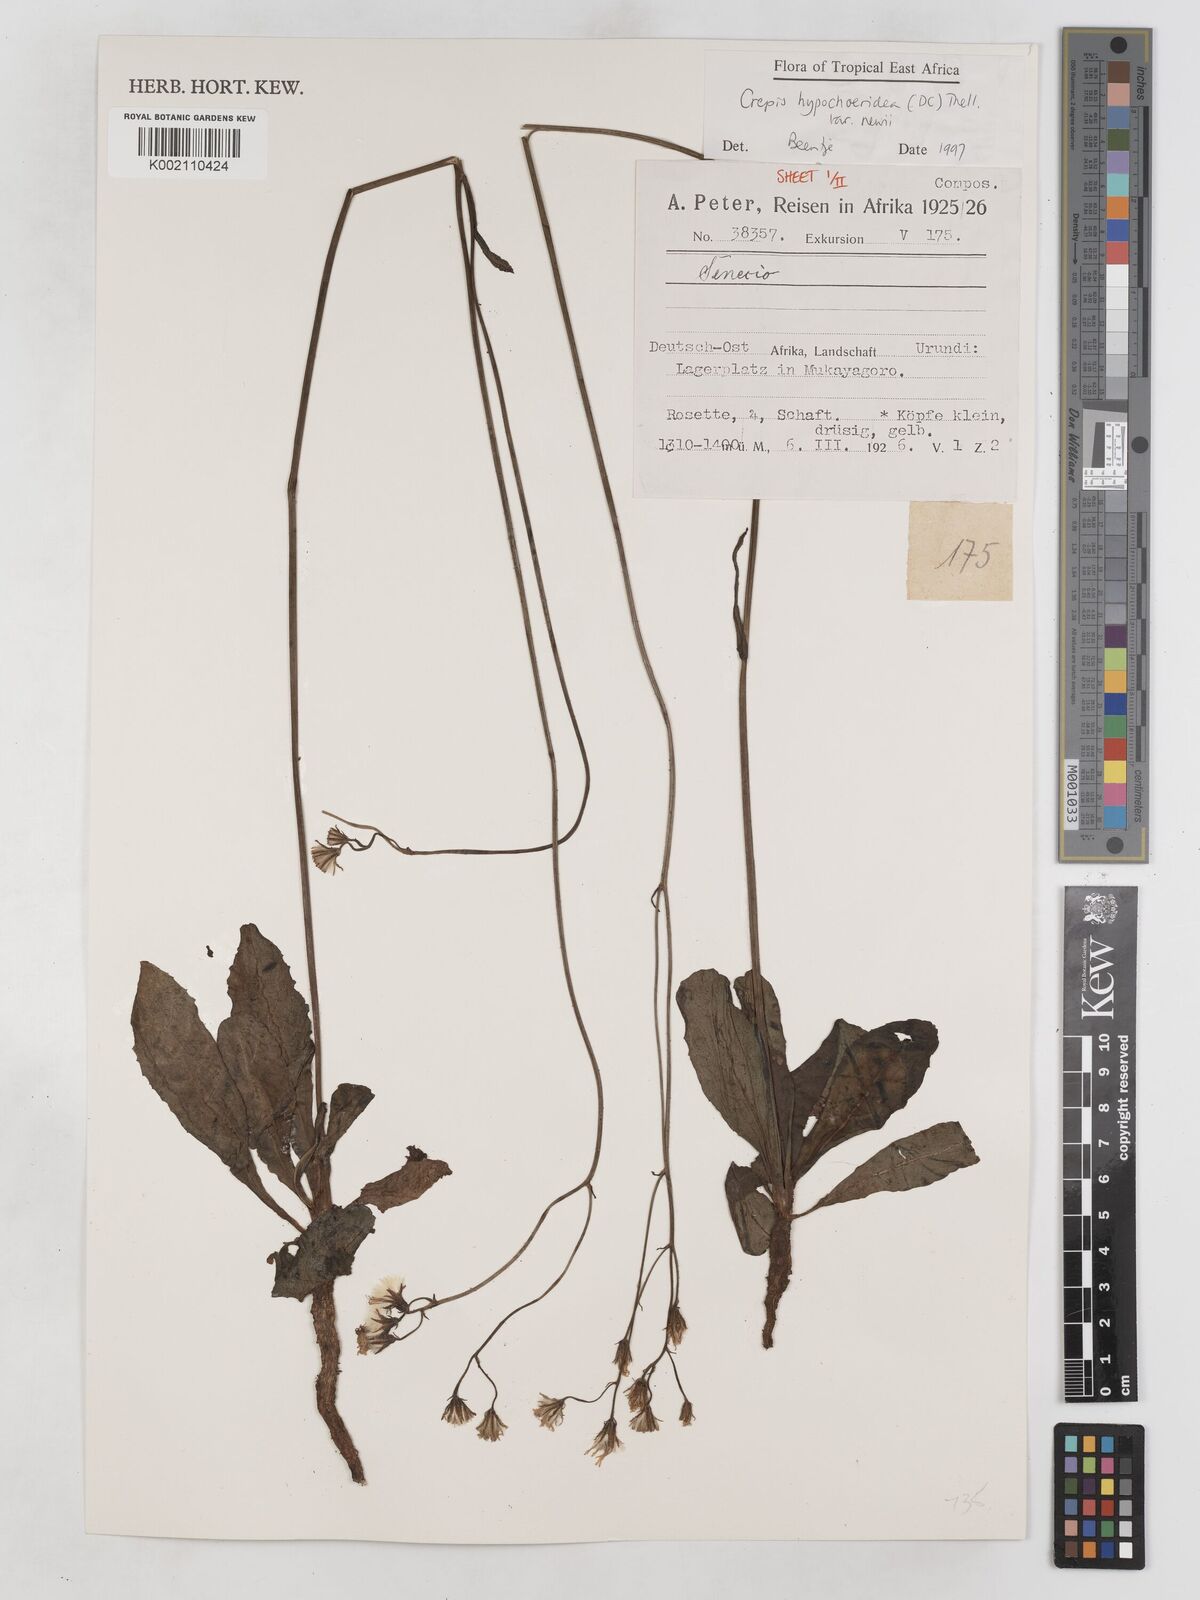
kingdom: Plantae
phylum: Tracheophyta
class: Magnoliopsida
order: Asterales
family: Asteraceae
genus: Crepis
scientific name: Crepis hypochoeridea
